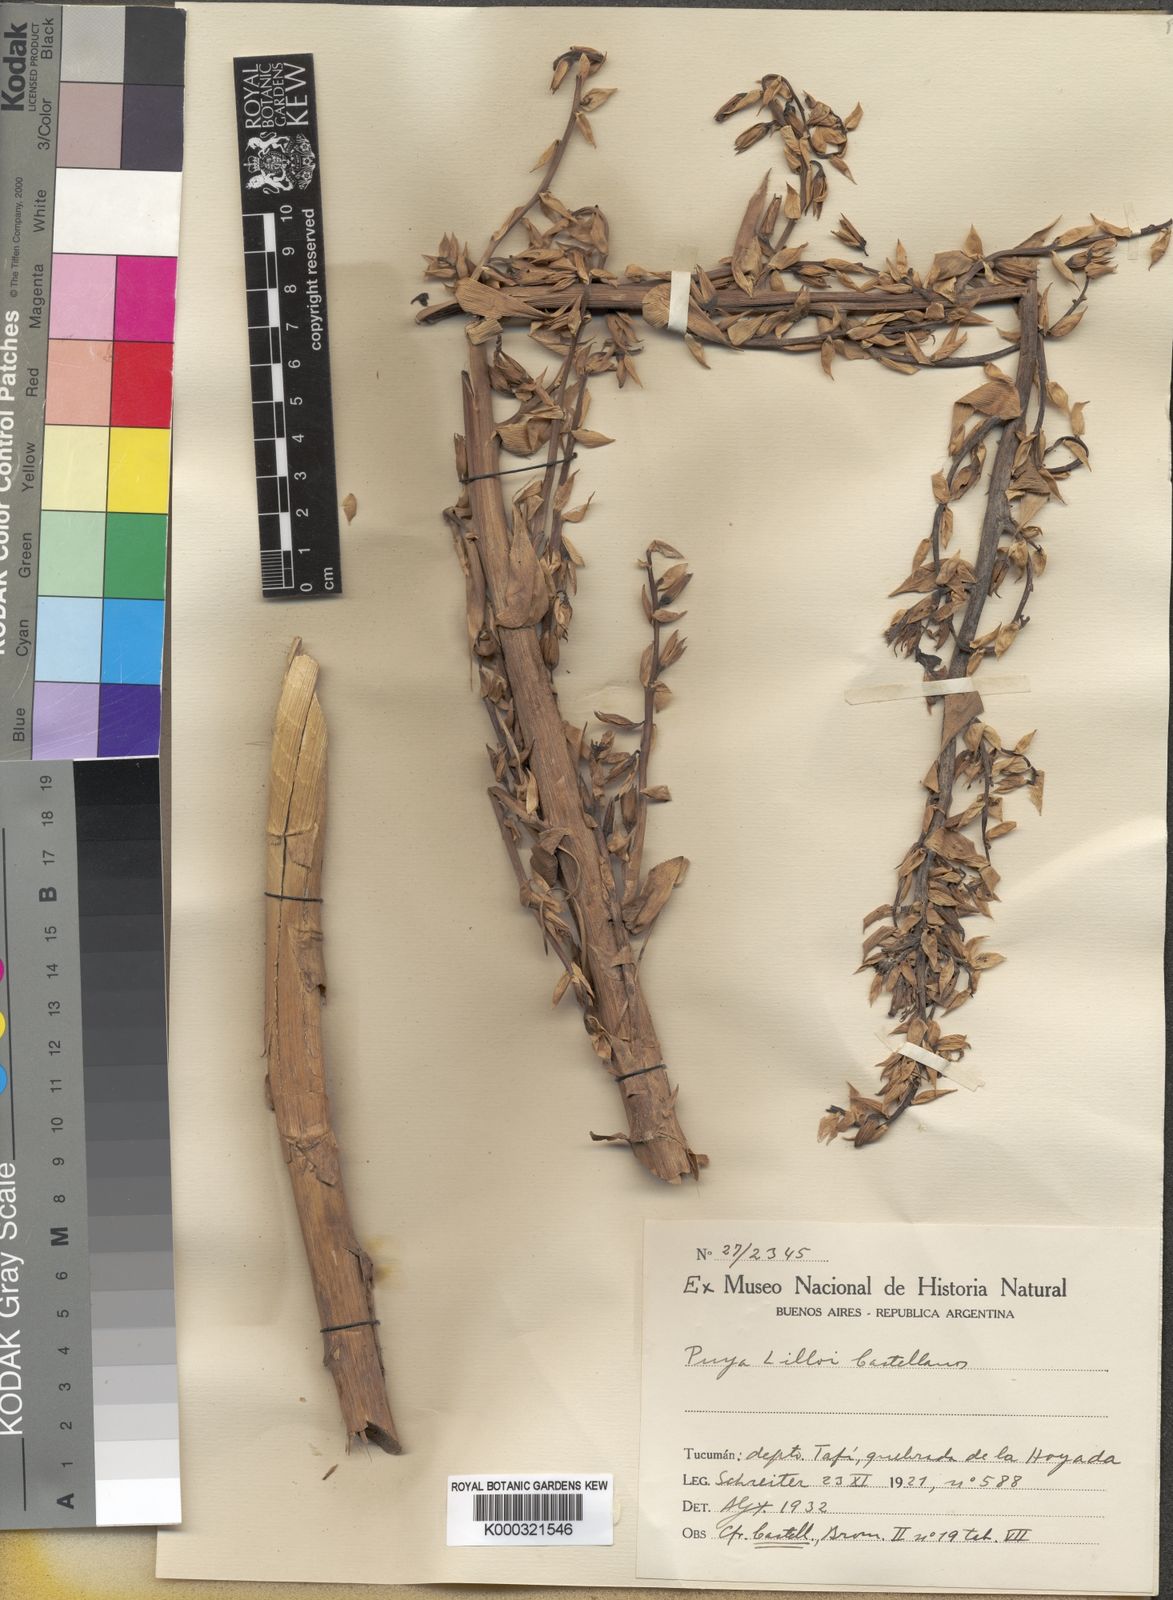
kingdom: Plantae
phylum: Tracheophyta
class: Liliopsida
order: Poales
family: Bromeliaceae
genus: Puya
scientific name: Puya lilloi
